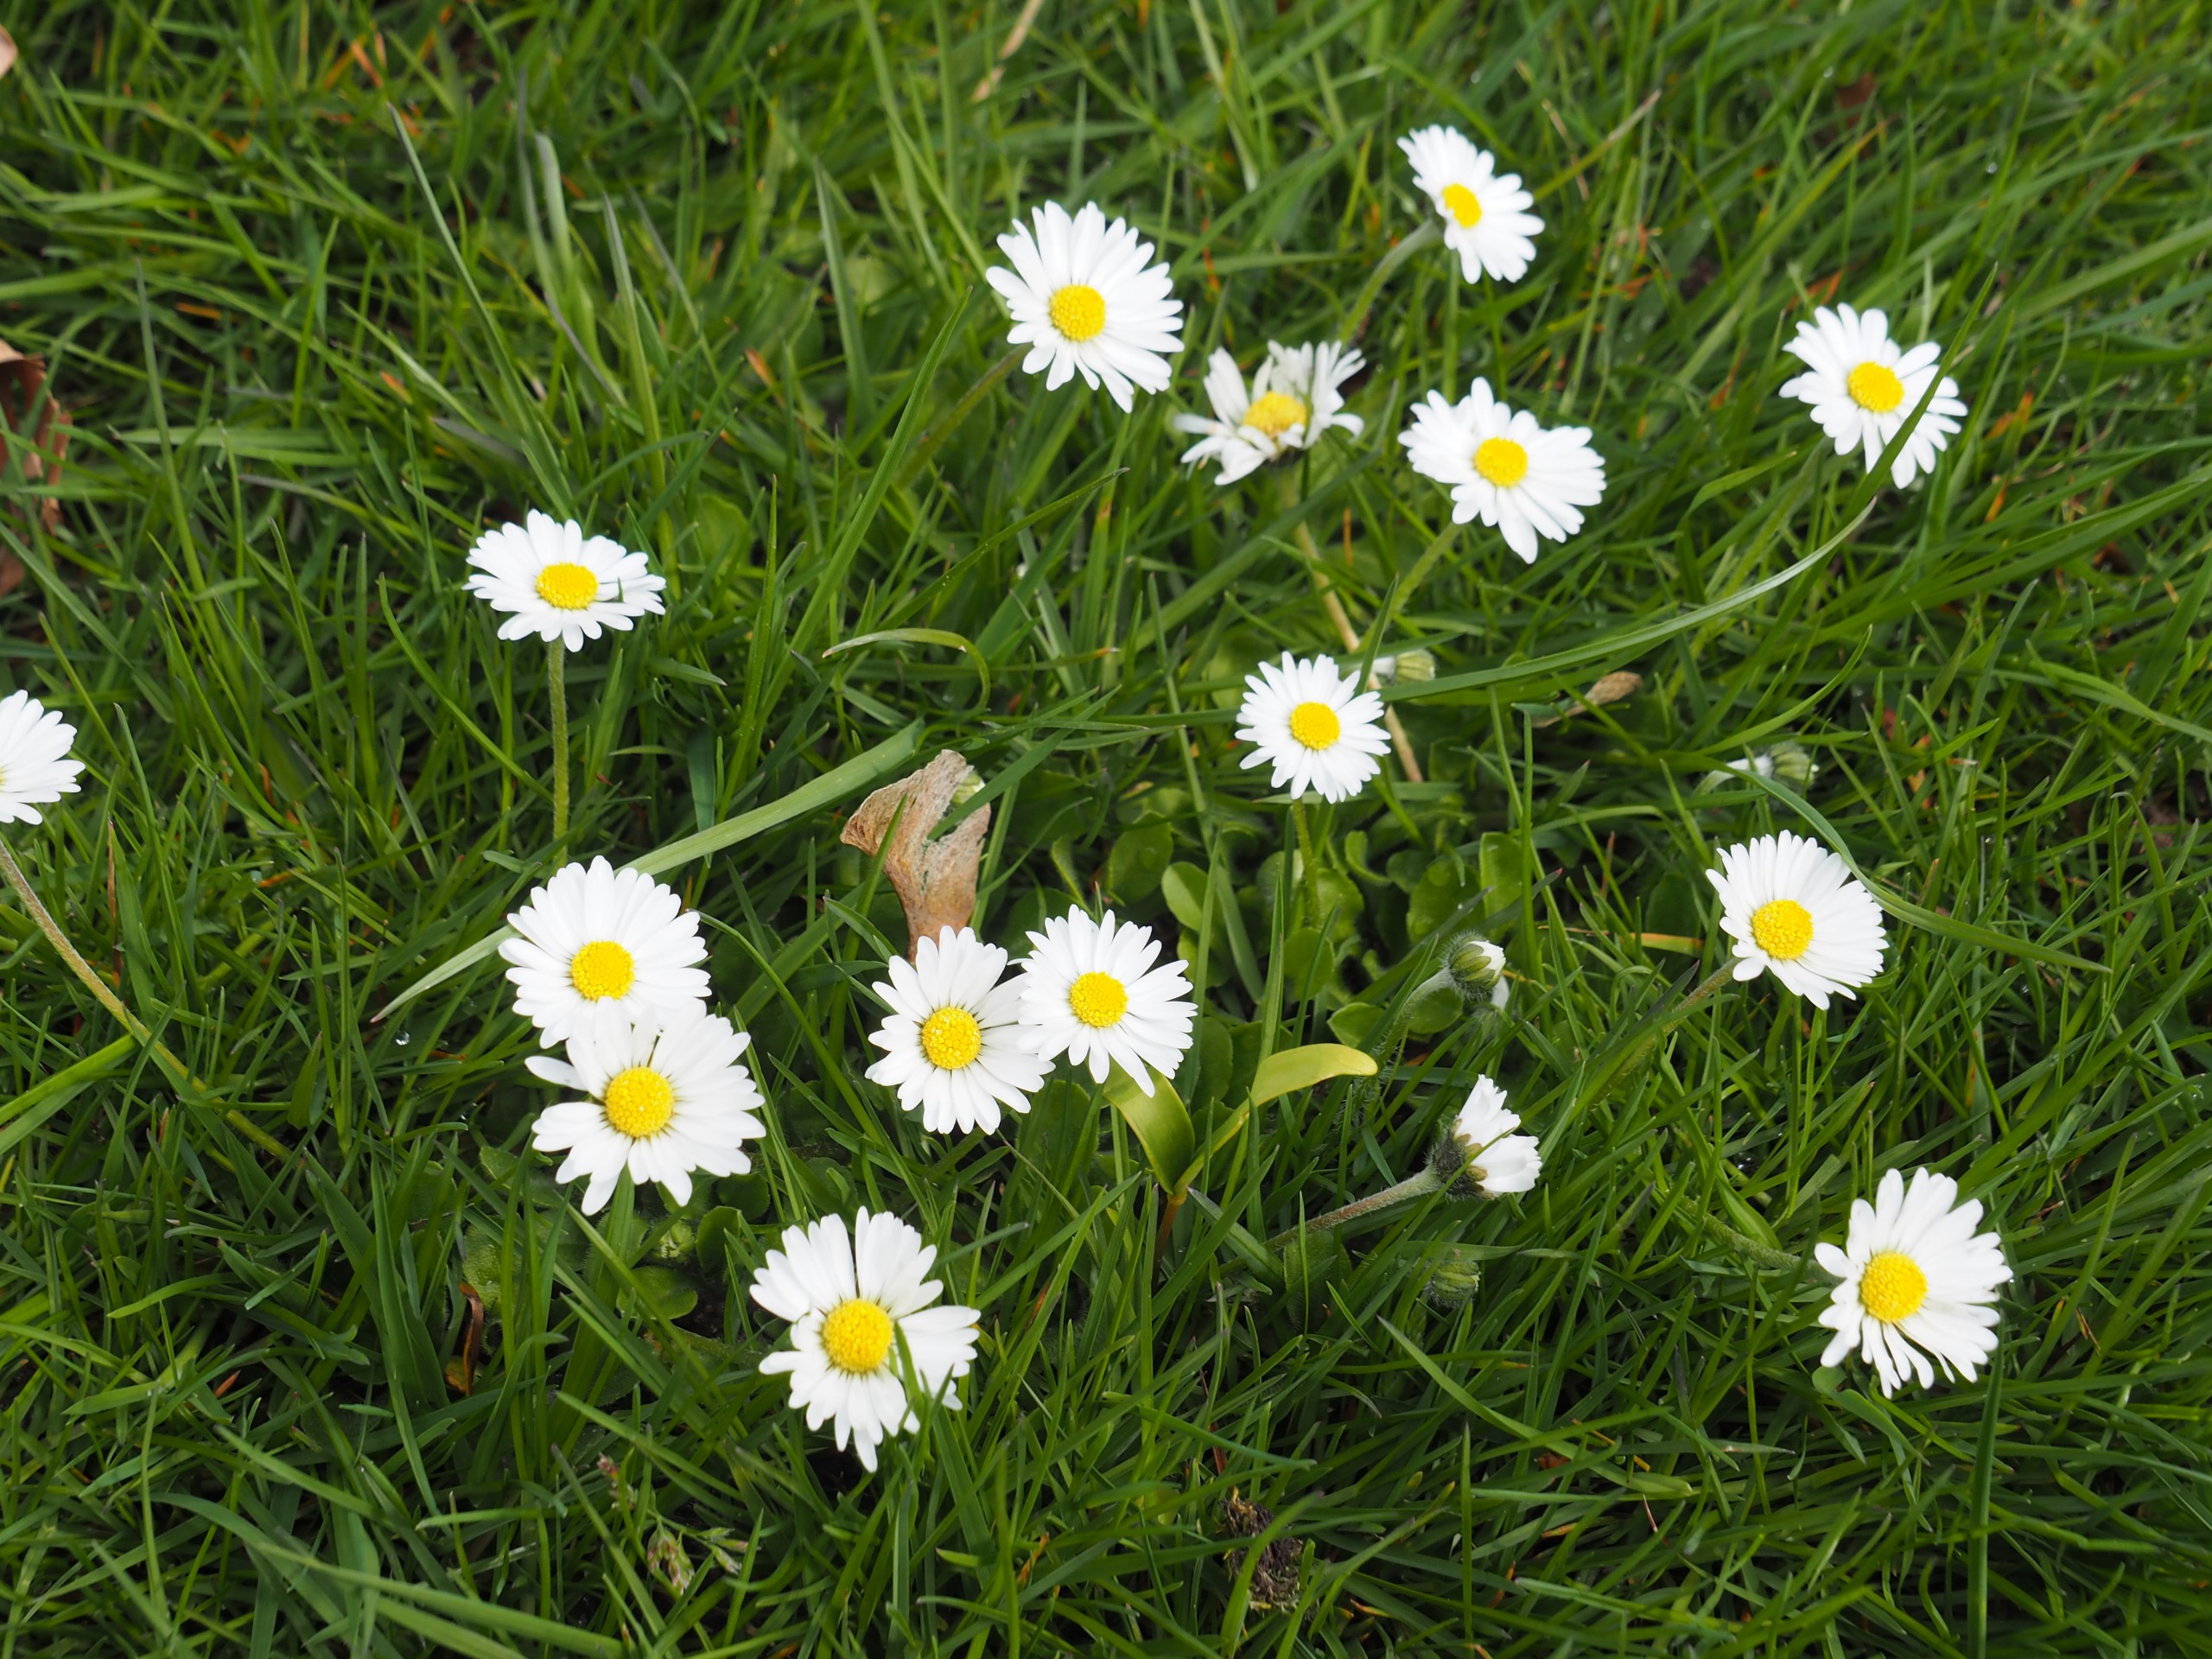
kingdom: Plantae
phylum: Tracheophyta
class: Magnoliopsida
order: Asterales
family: Asteraceae
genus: Bellis
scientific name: Bellis perennis
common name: Tusindfryd
